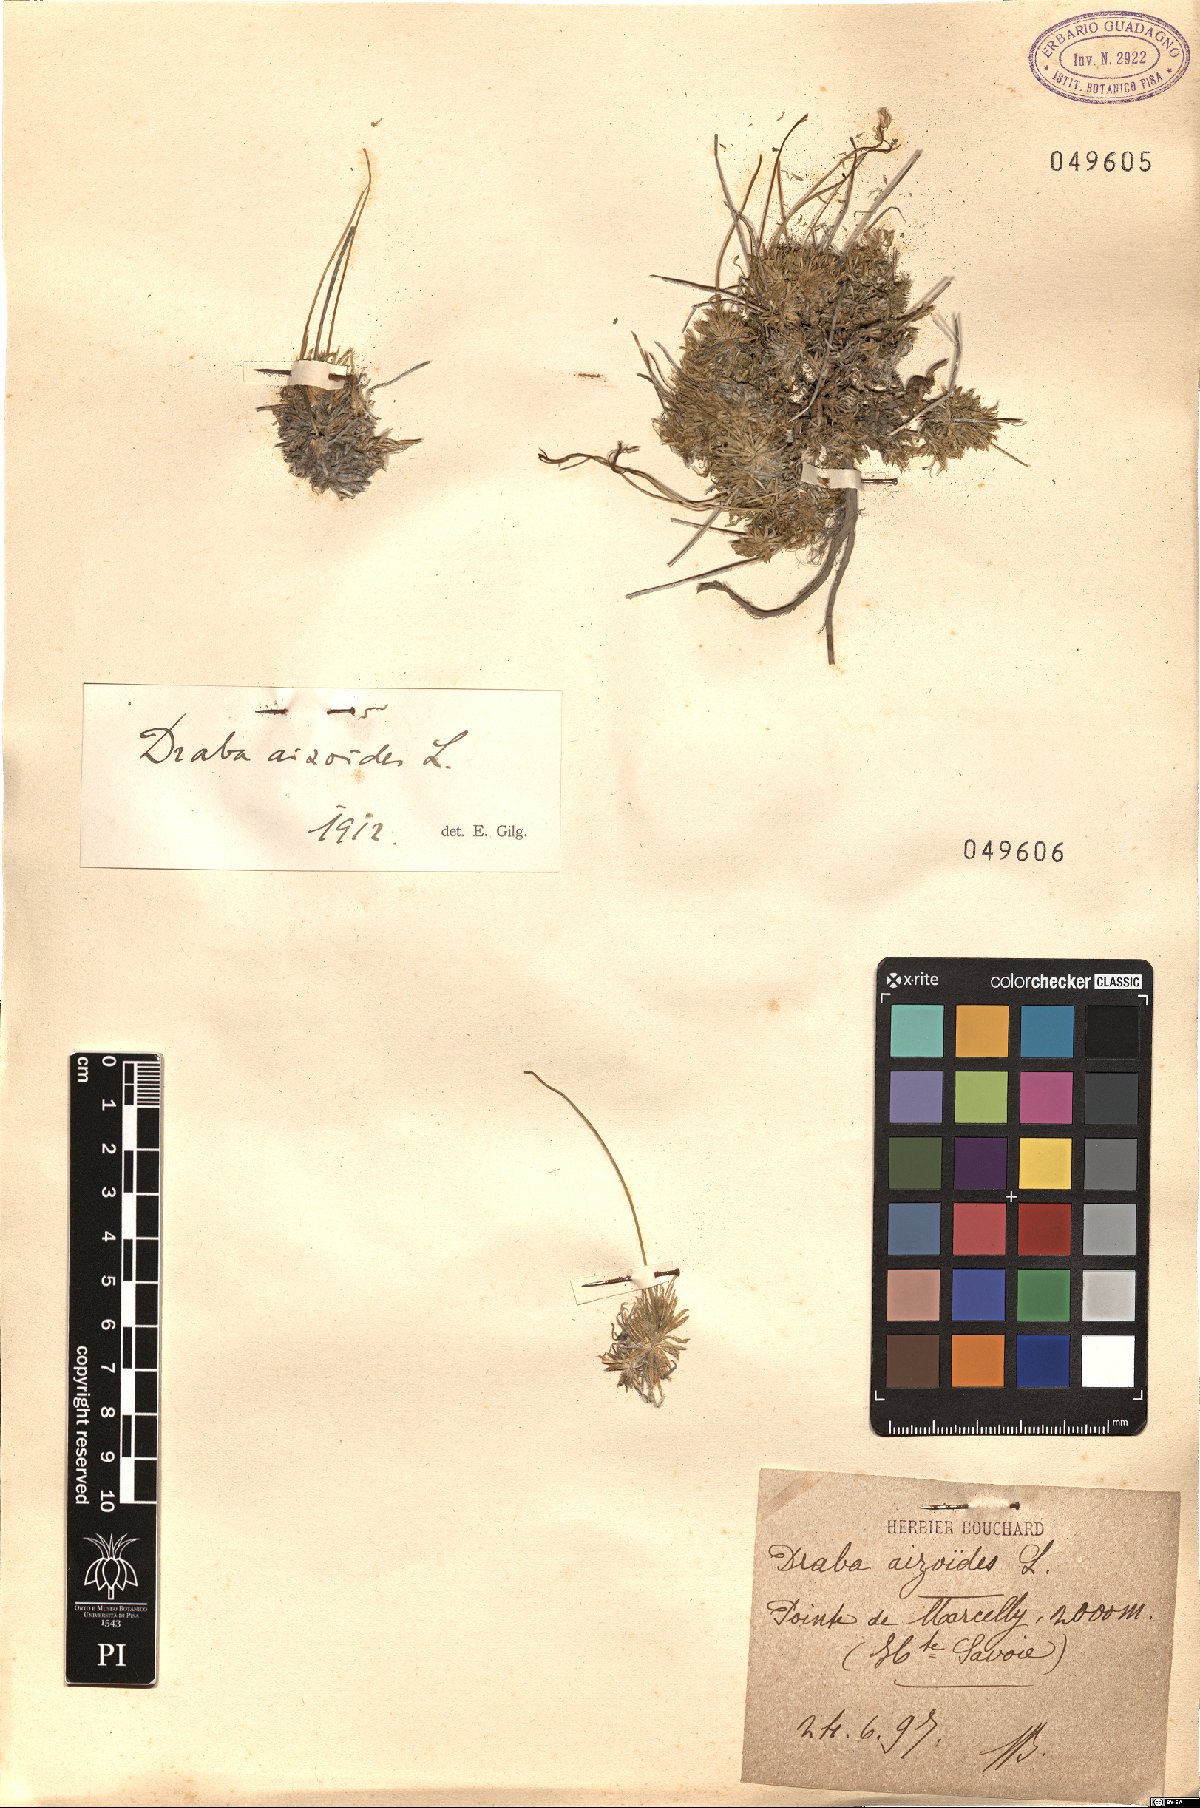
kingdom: Plantae
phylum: Tracheophyta
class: Magnoliopsida
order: Brassicales
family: Brassicaceae
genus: Draba
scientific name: Draba aizoides
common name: Yellow whitlowgrass
